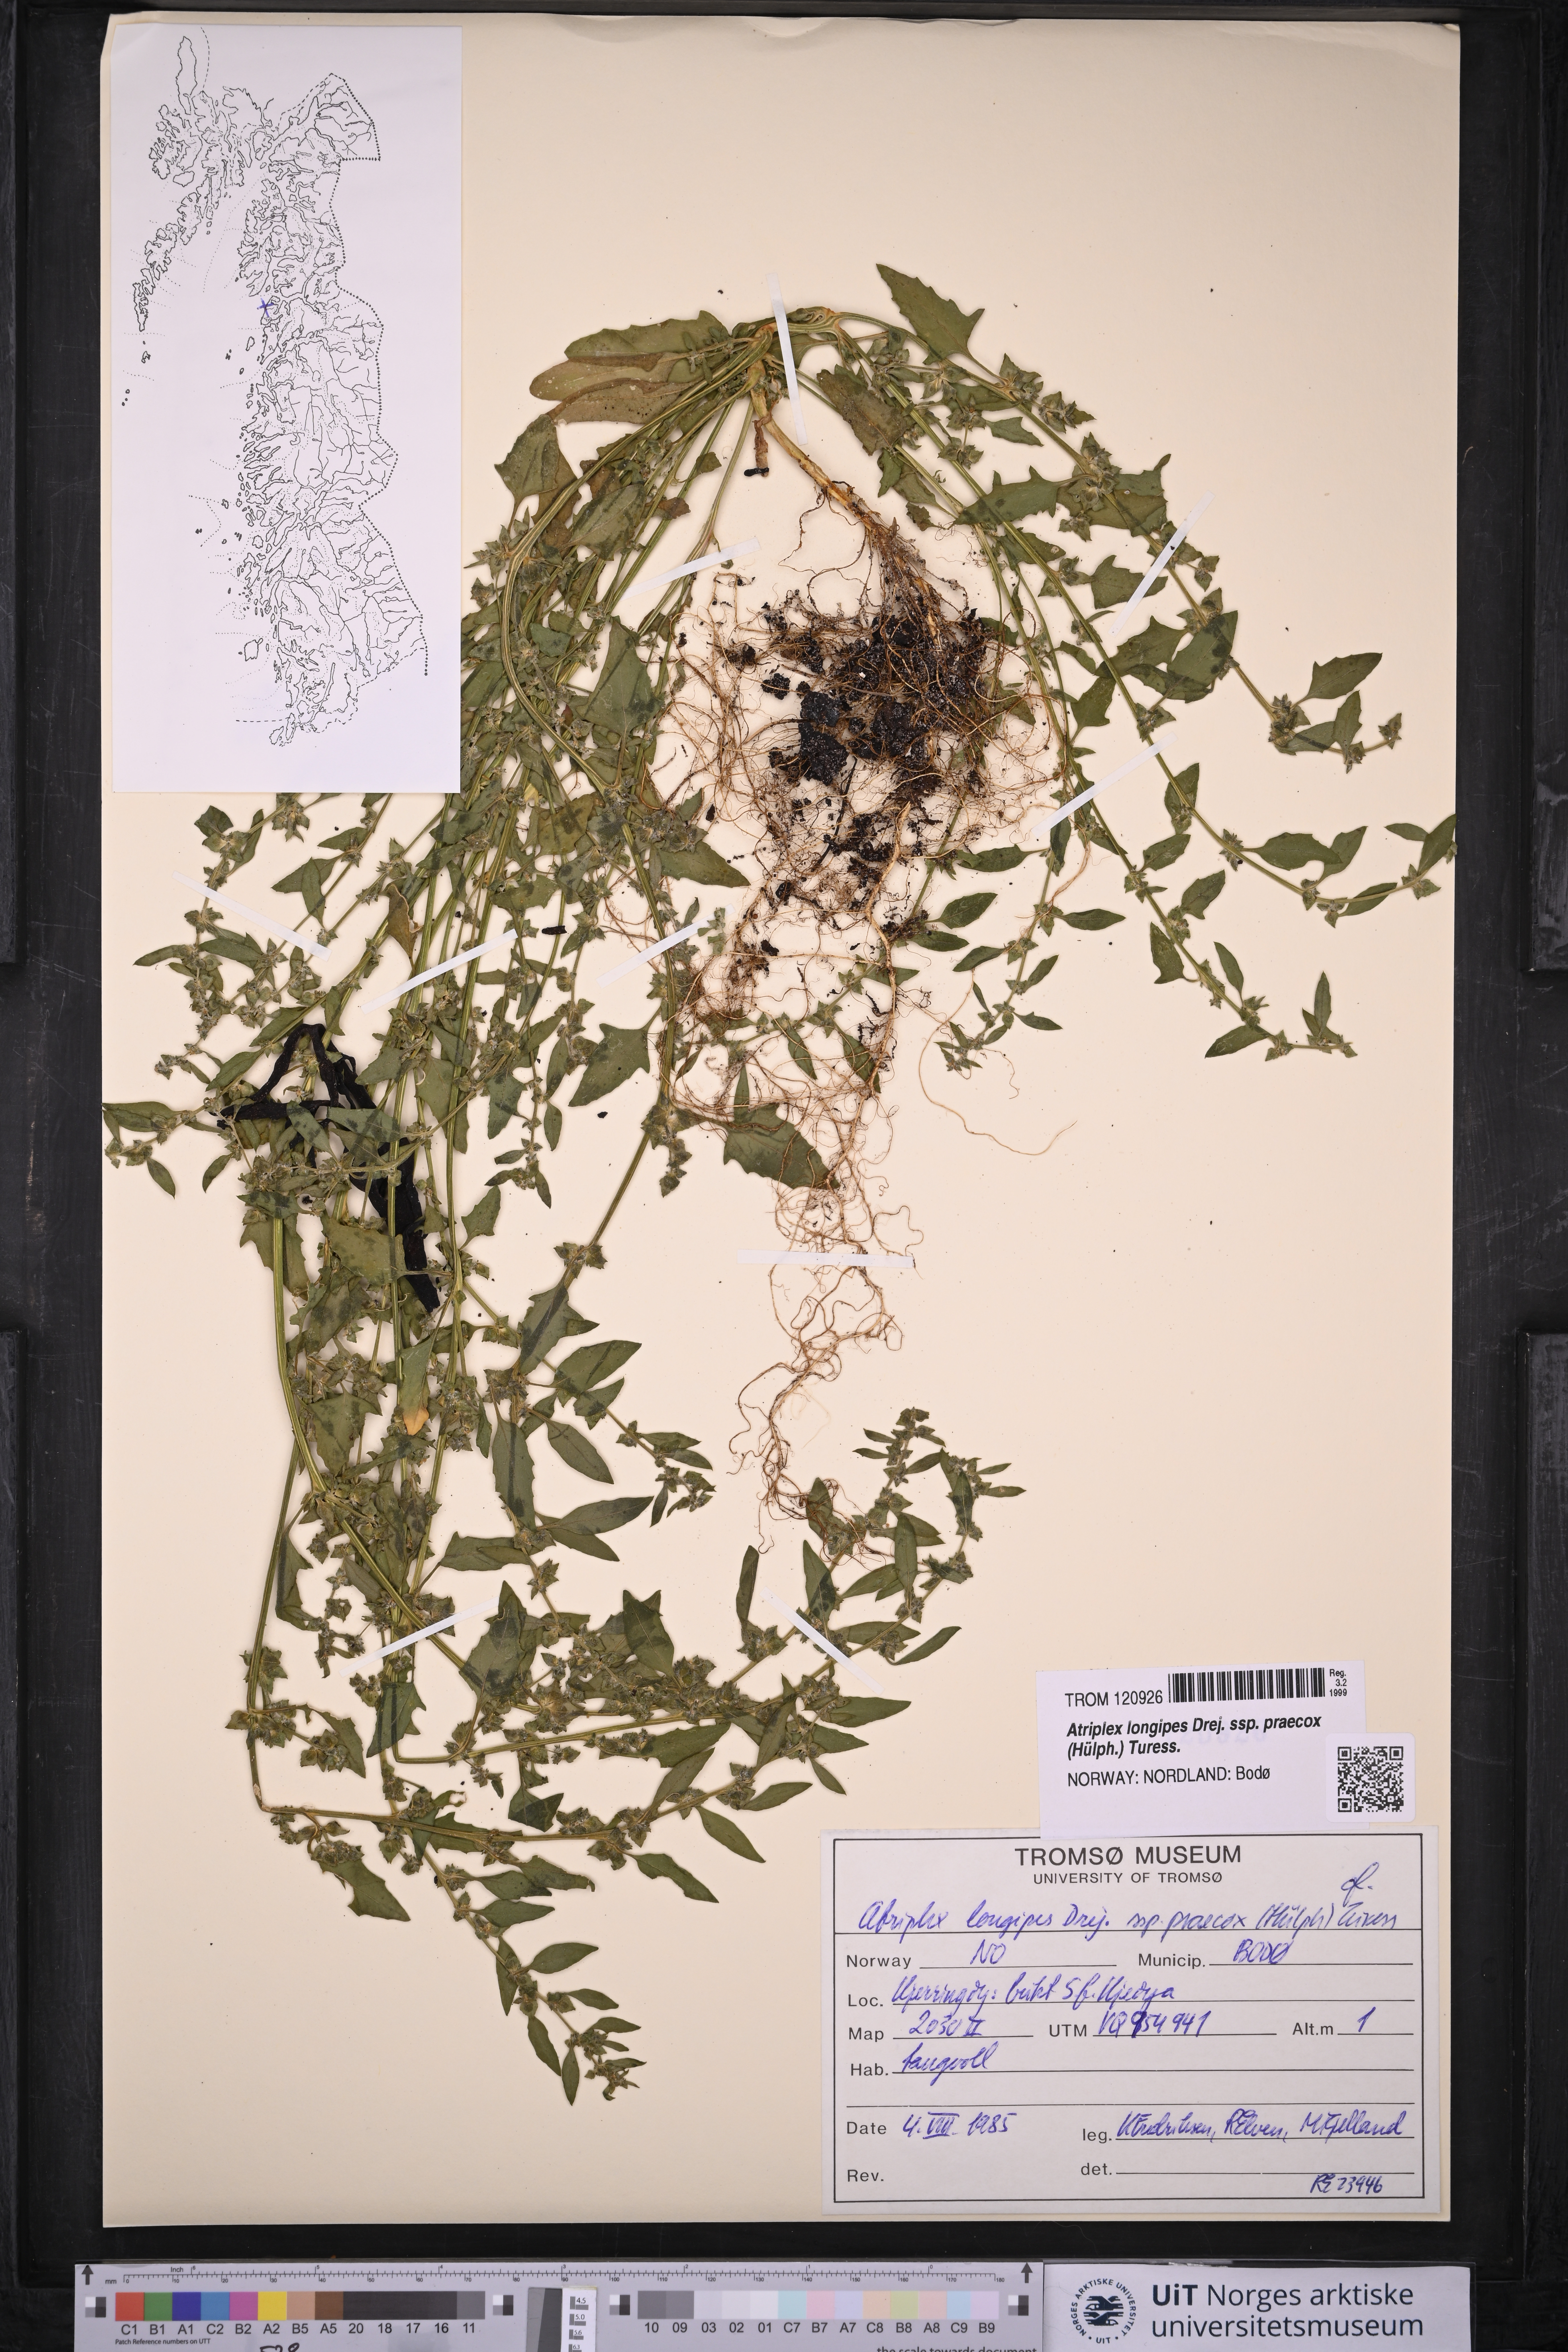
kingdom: Plantae
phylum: Tracheophyta
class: Magnoliopsida
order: Caryophyllales
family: Amaranthaceae
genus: Atriplex
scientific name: Atriplex praecox
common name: Early orache
